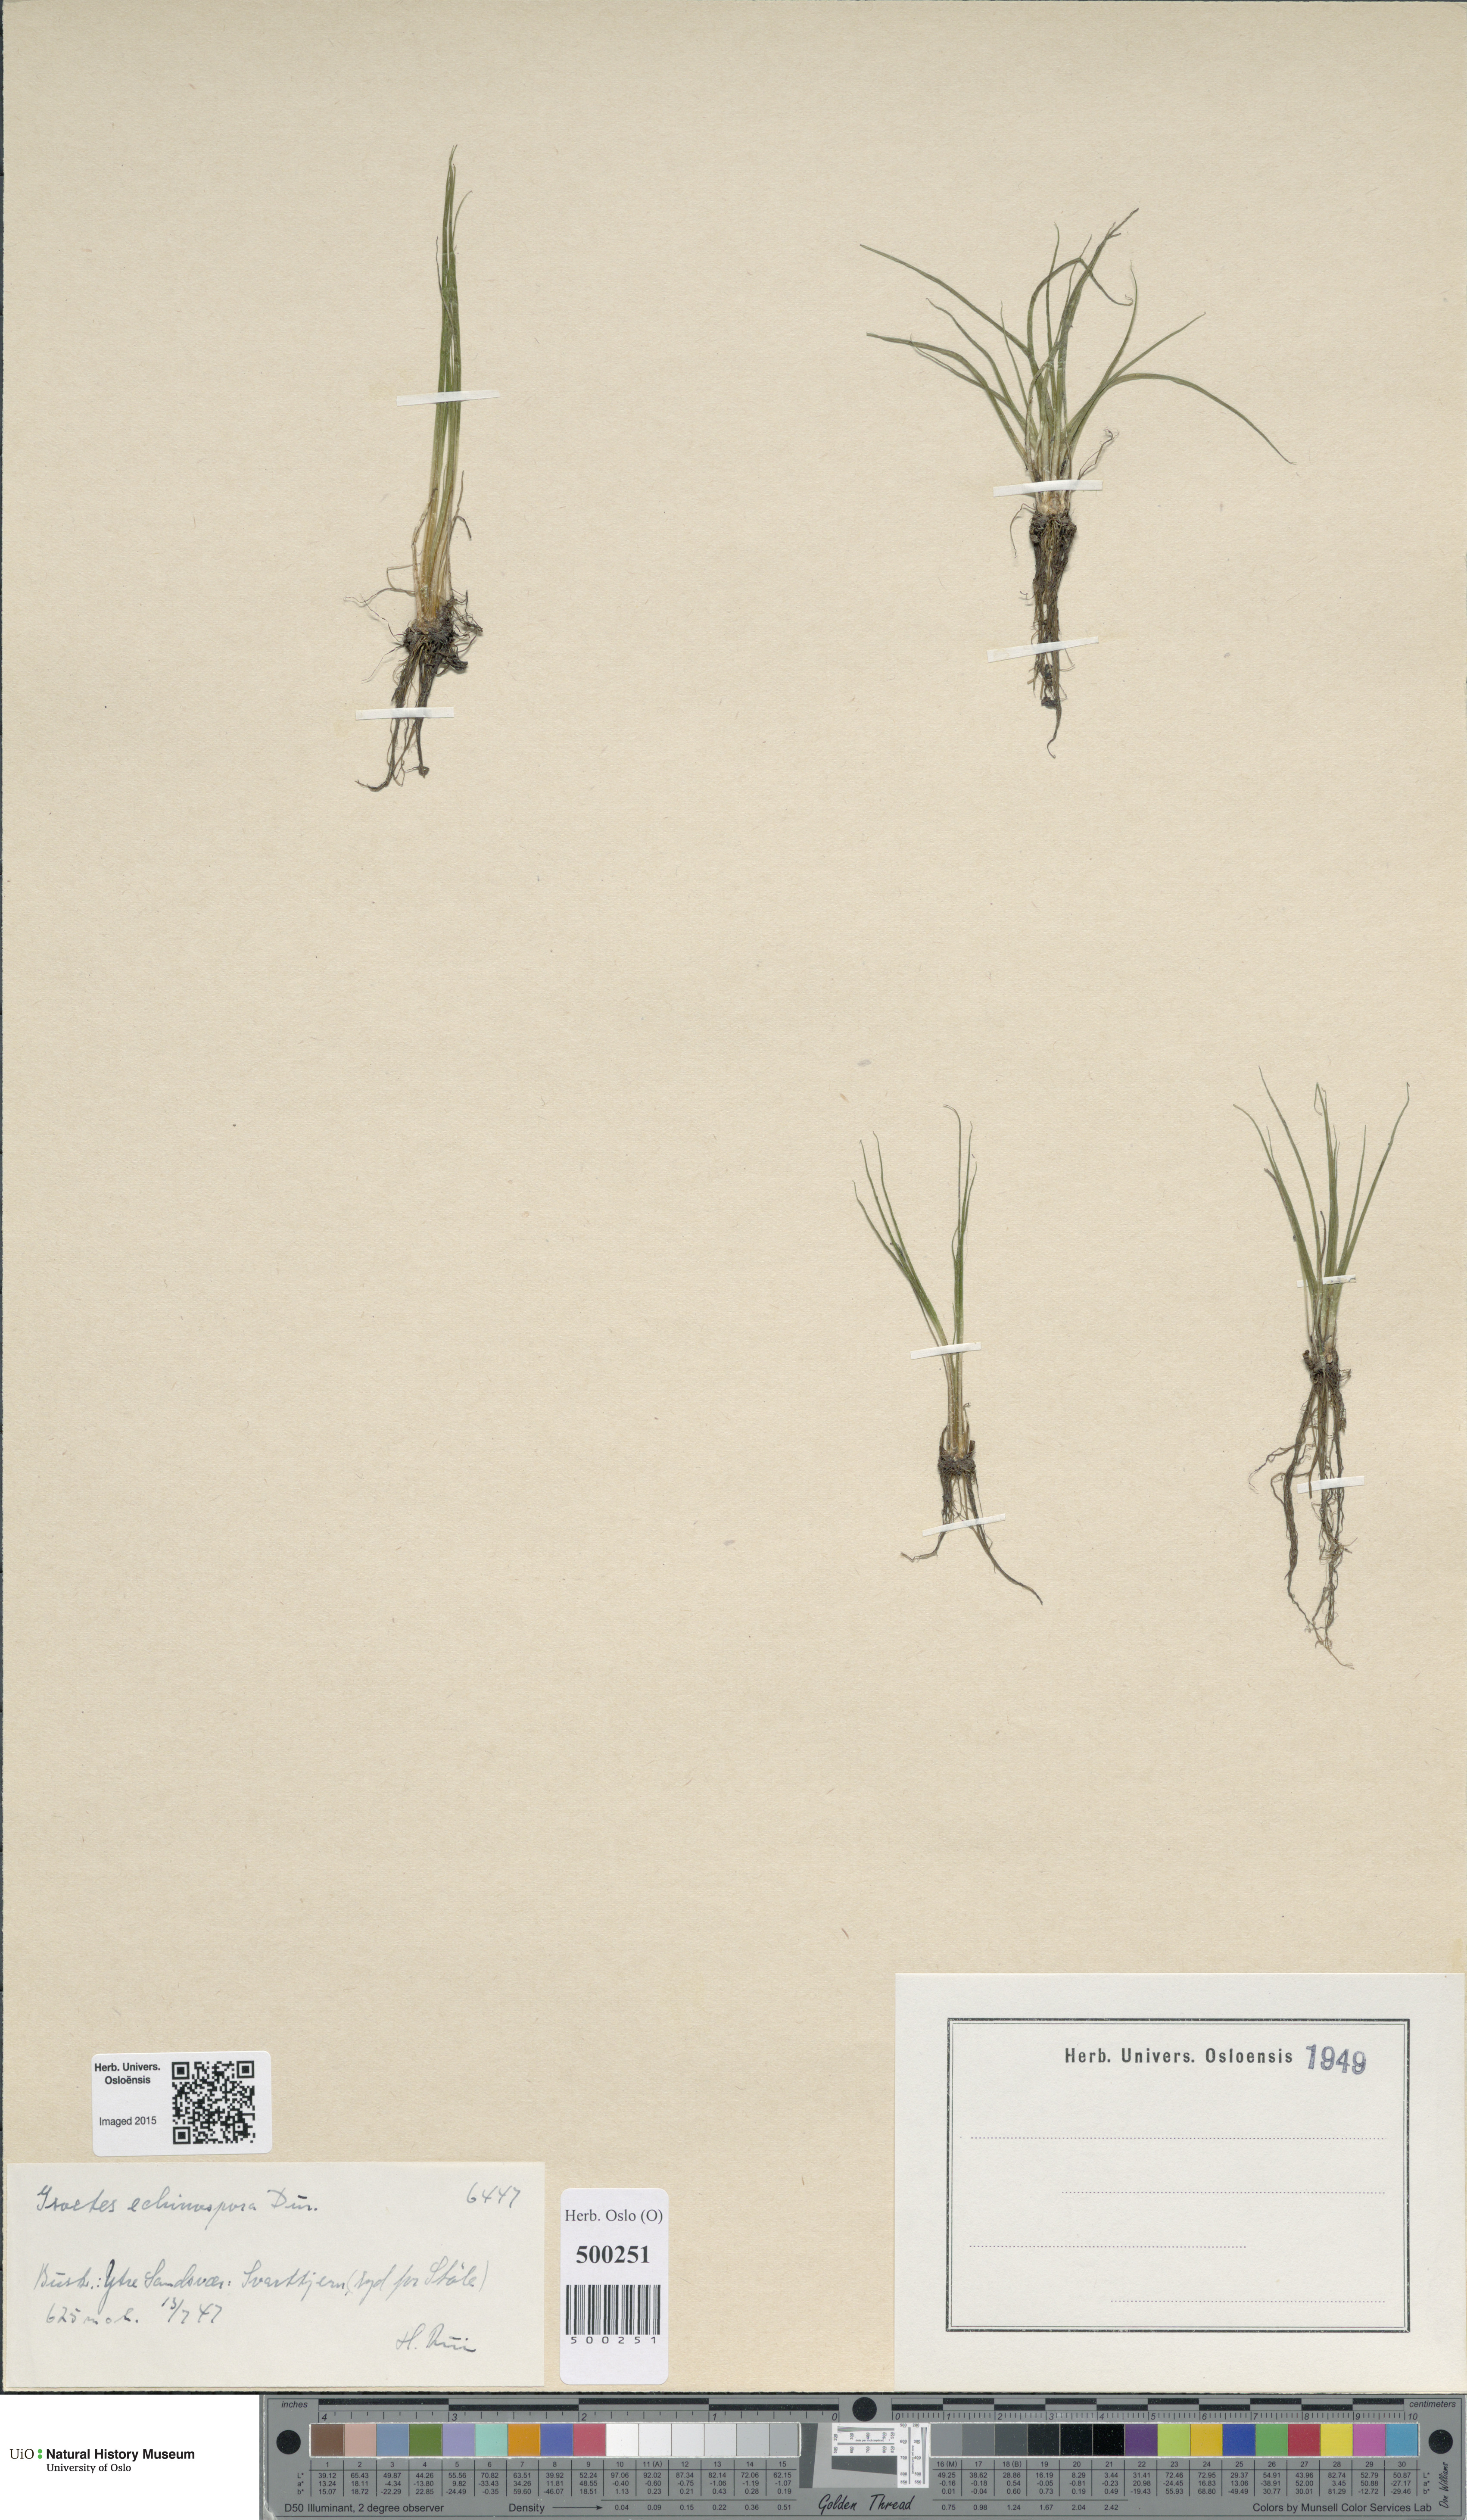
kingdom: Plantae
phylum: Tracheophyta
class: Lycopodiopsida
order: Isoetales
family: Isoetaceae
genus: Isoetes
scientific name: Isoetes echinospora
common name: Spring quillwort
